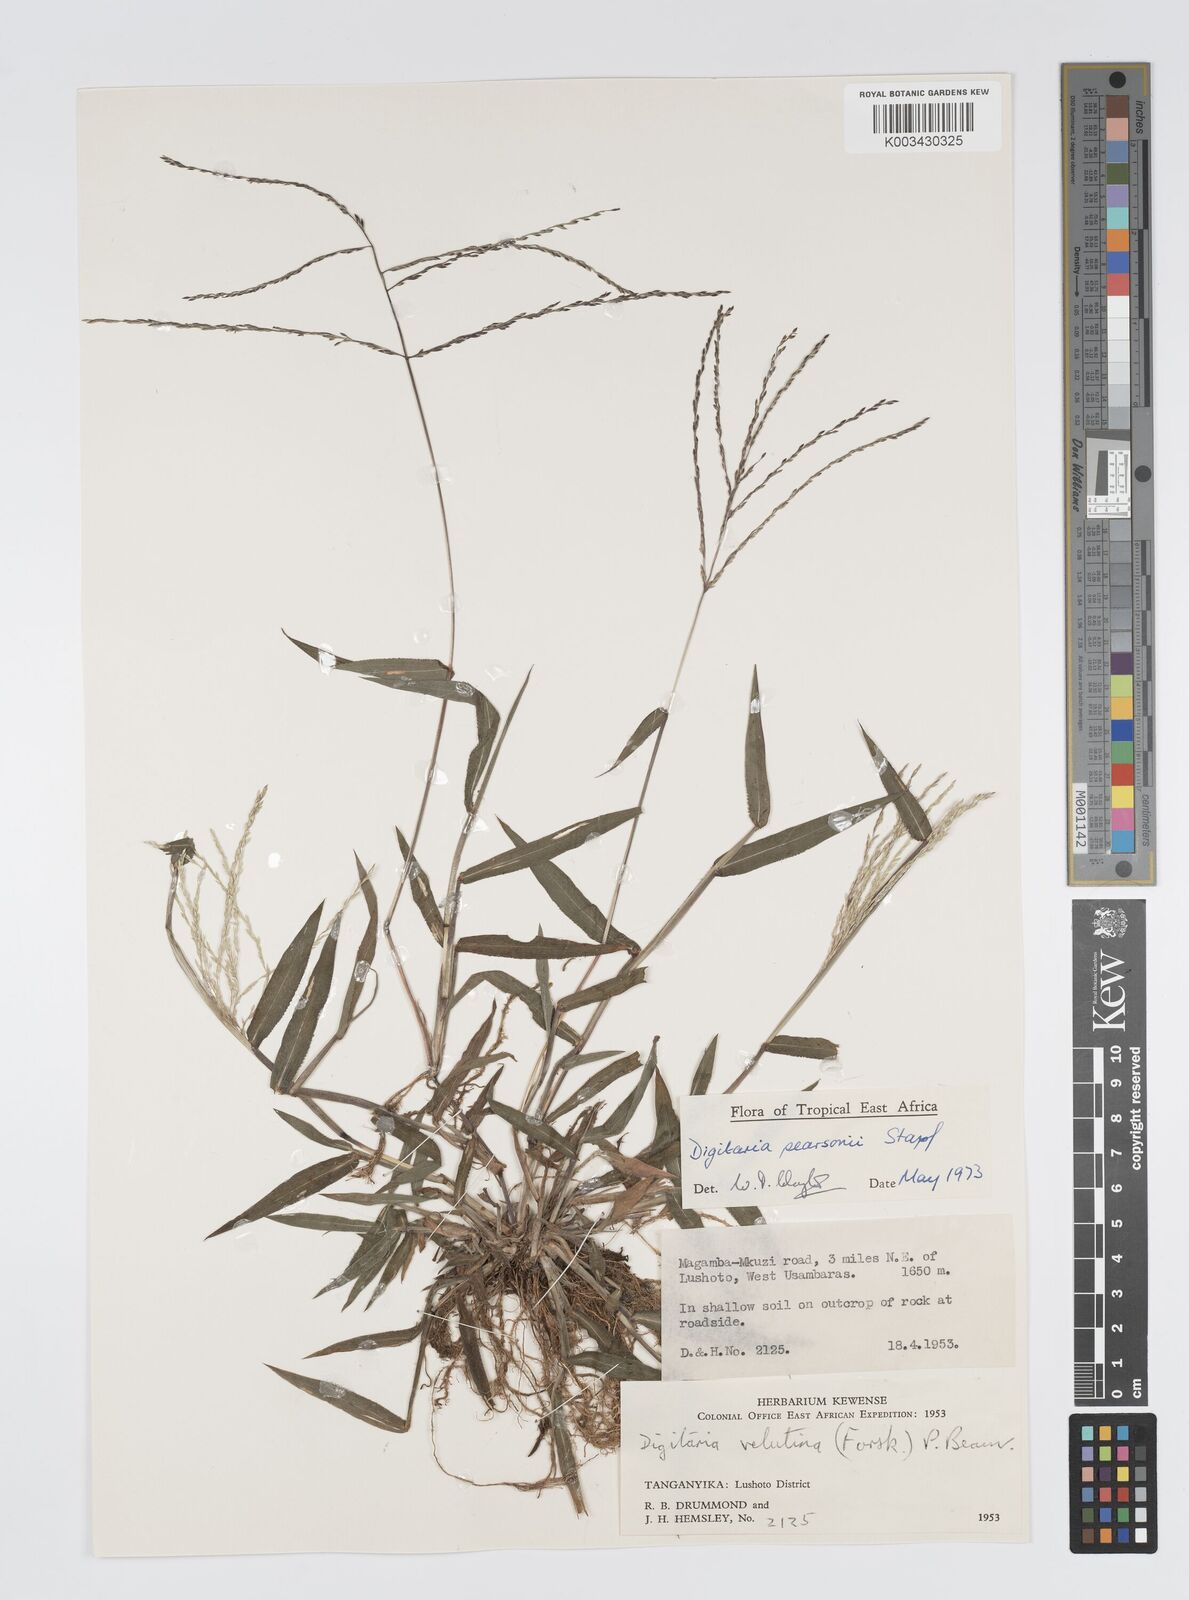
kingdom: Plantae
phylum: Tracheophyta
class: Liliopsida
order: Poales
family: Poaceae
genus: Digitaria
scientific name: Digitaria pearsonii
